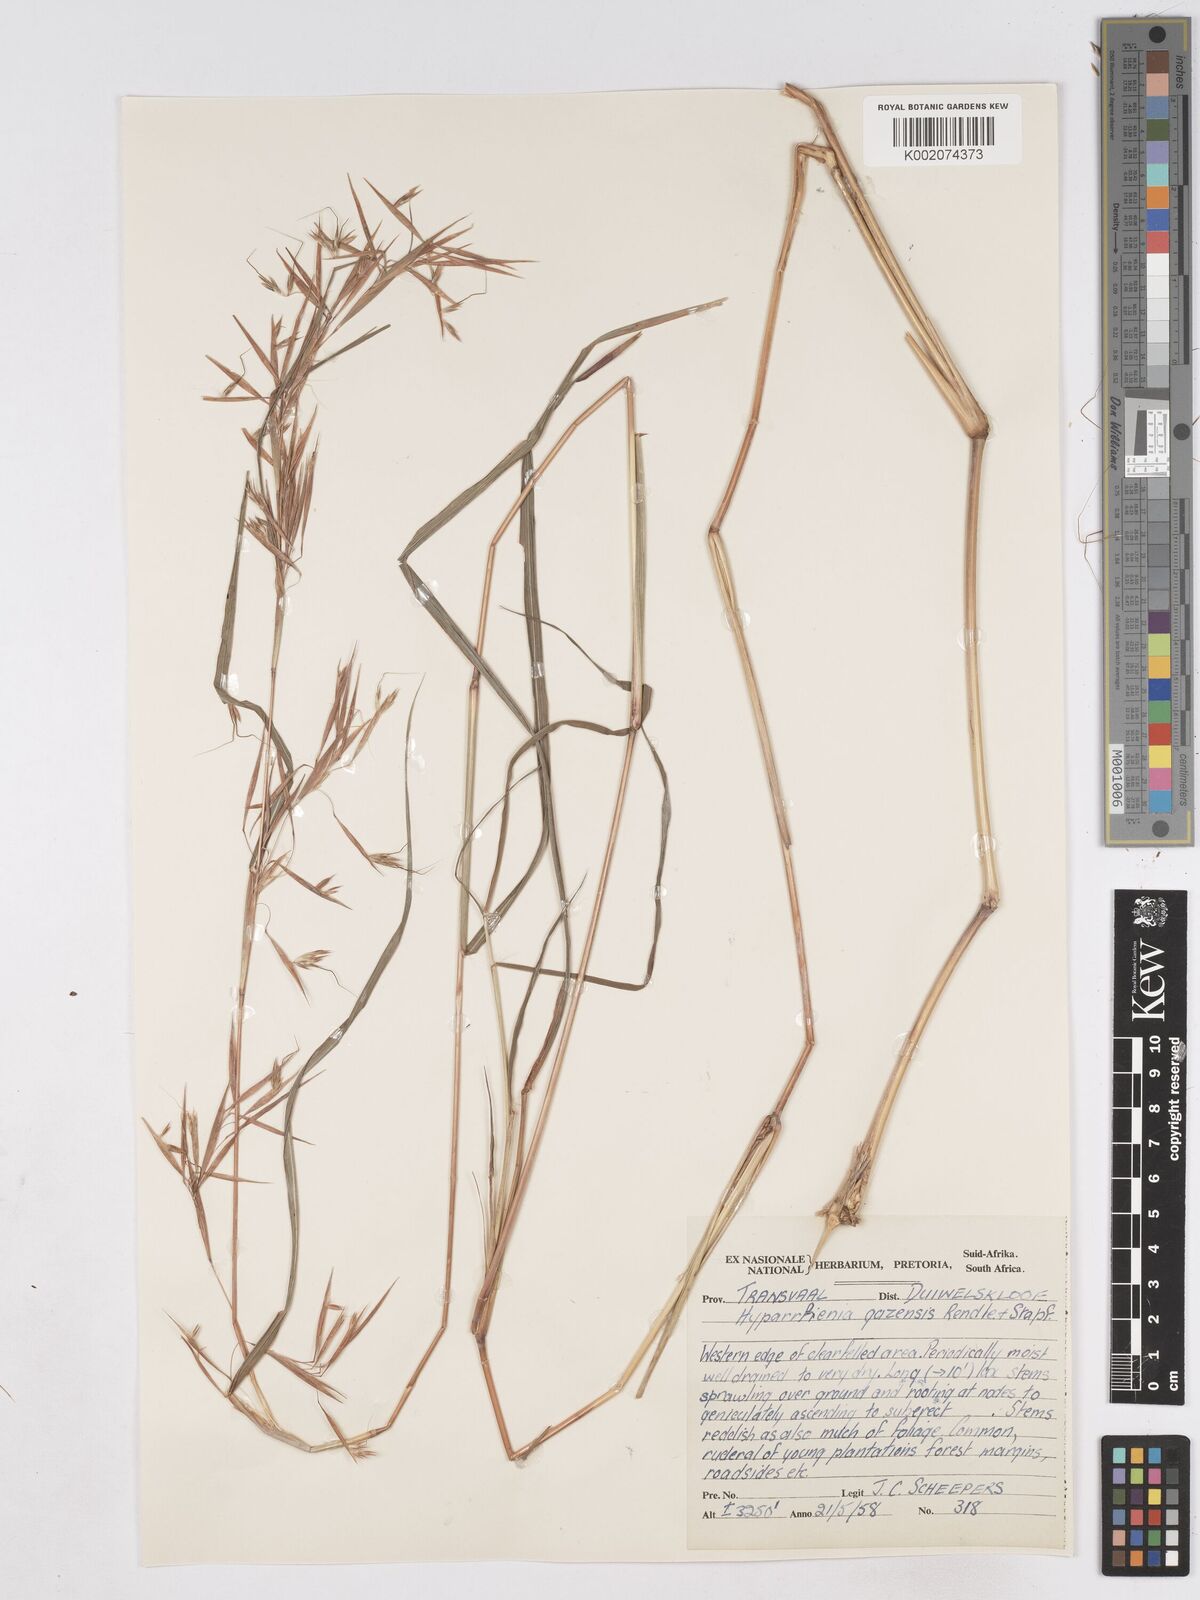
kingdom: Plantae
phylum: Tracheophyta
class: Liliopsida
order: Poales
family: Poaceae
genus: Hyparrhenia
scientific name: Hyparrhenia gazensis
